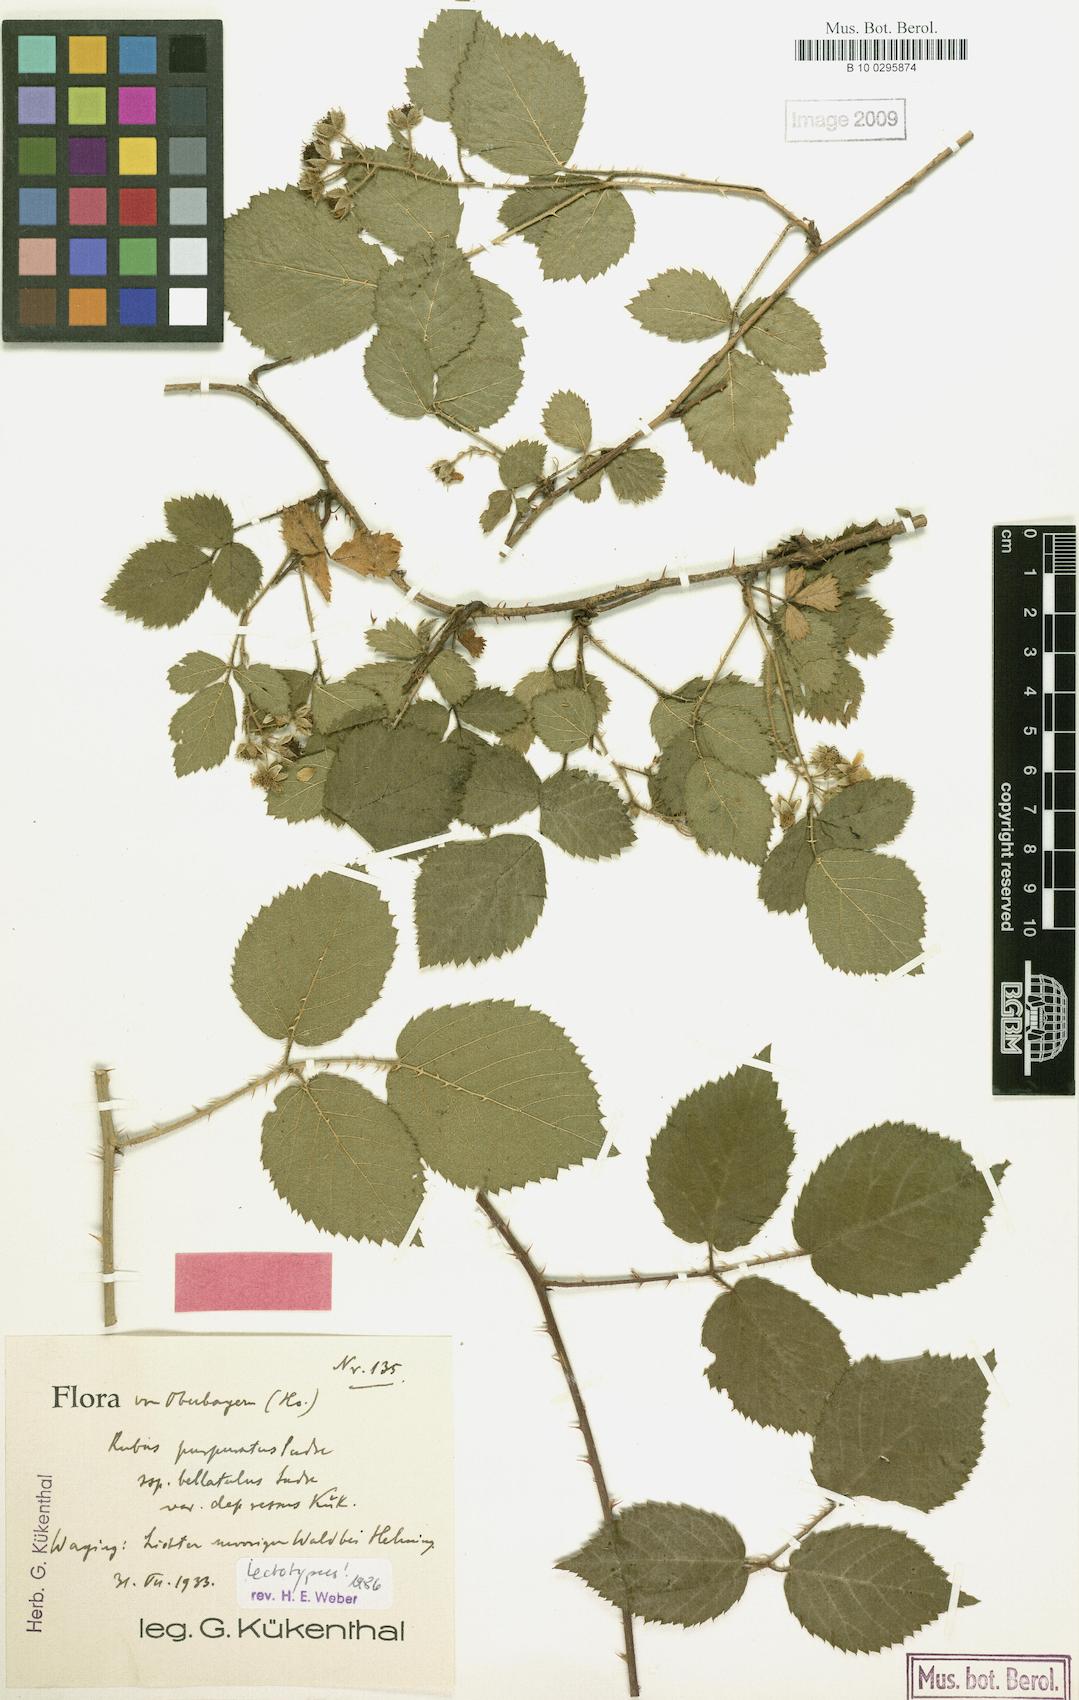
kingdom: Plantae
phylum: Tracheophyta
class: Magnoliopsida
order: Rosales
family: Rosaceae
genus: Rubus
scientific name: Rubus amoenus
